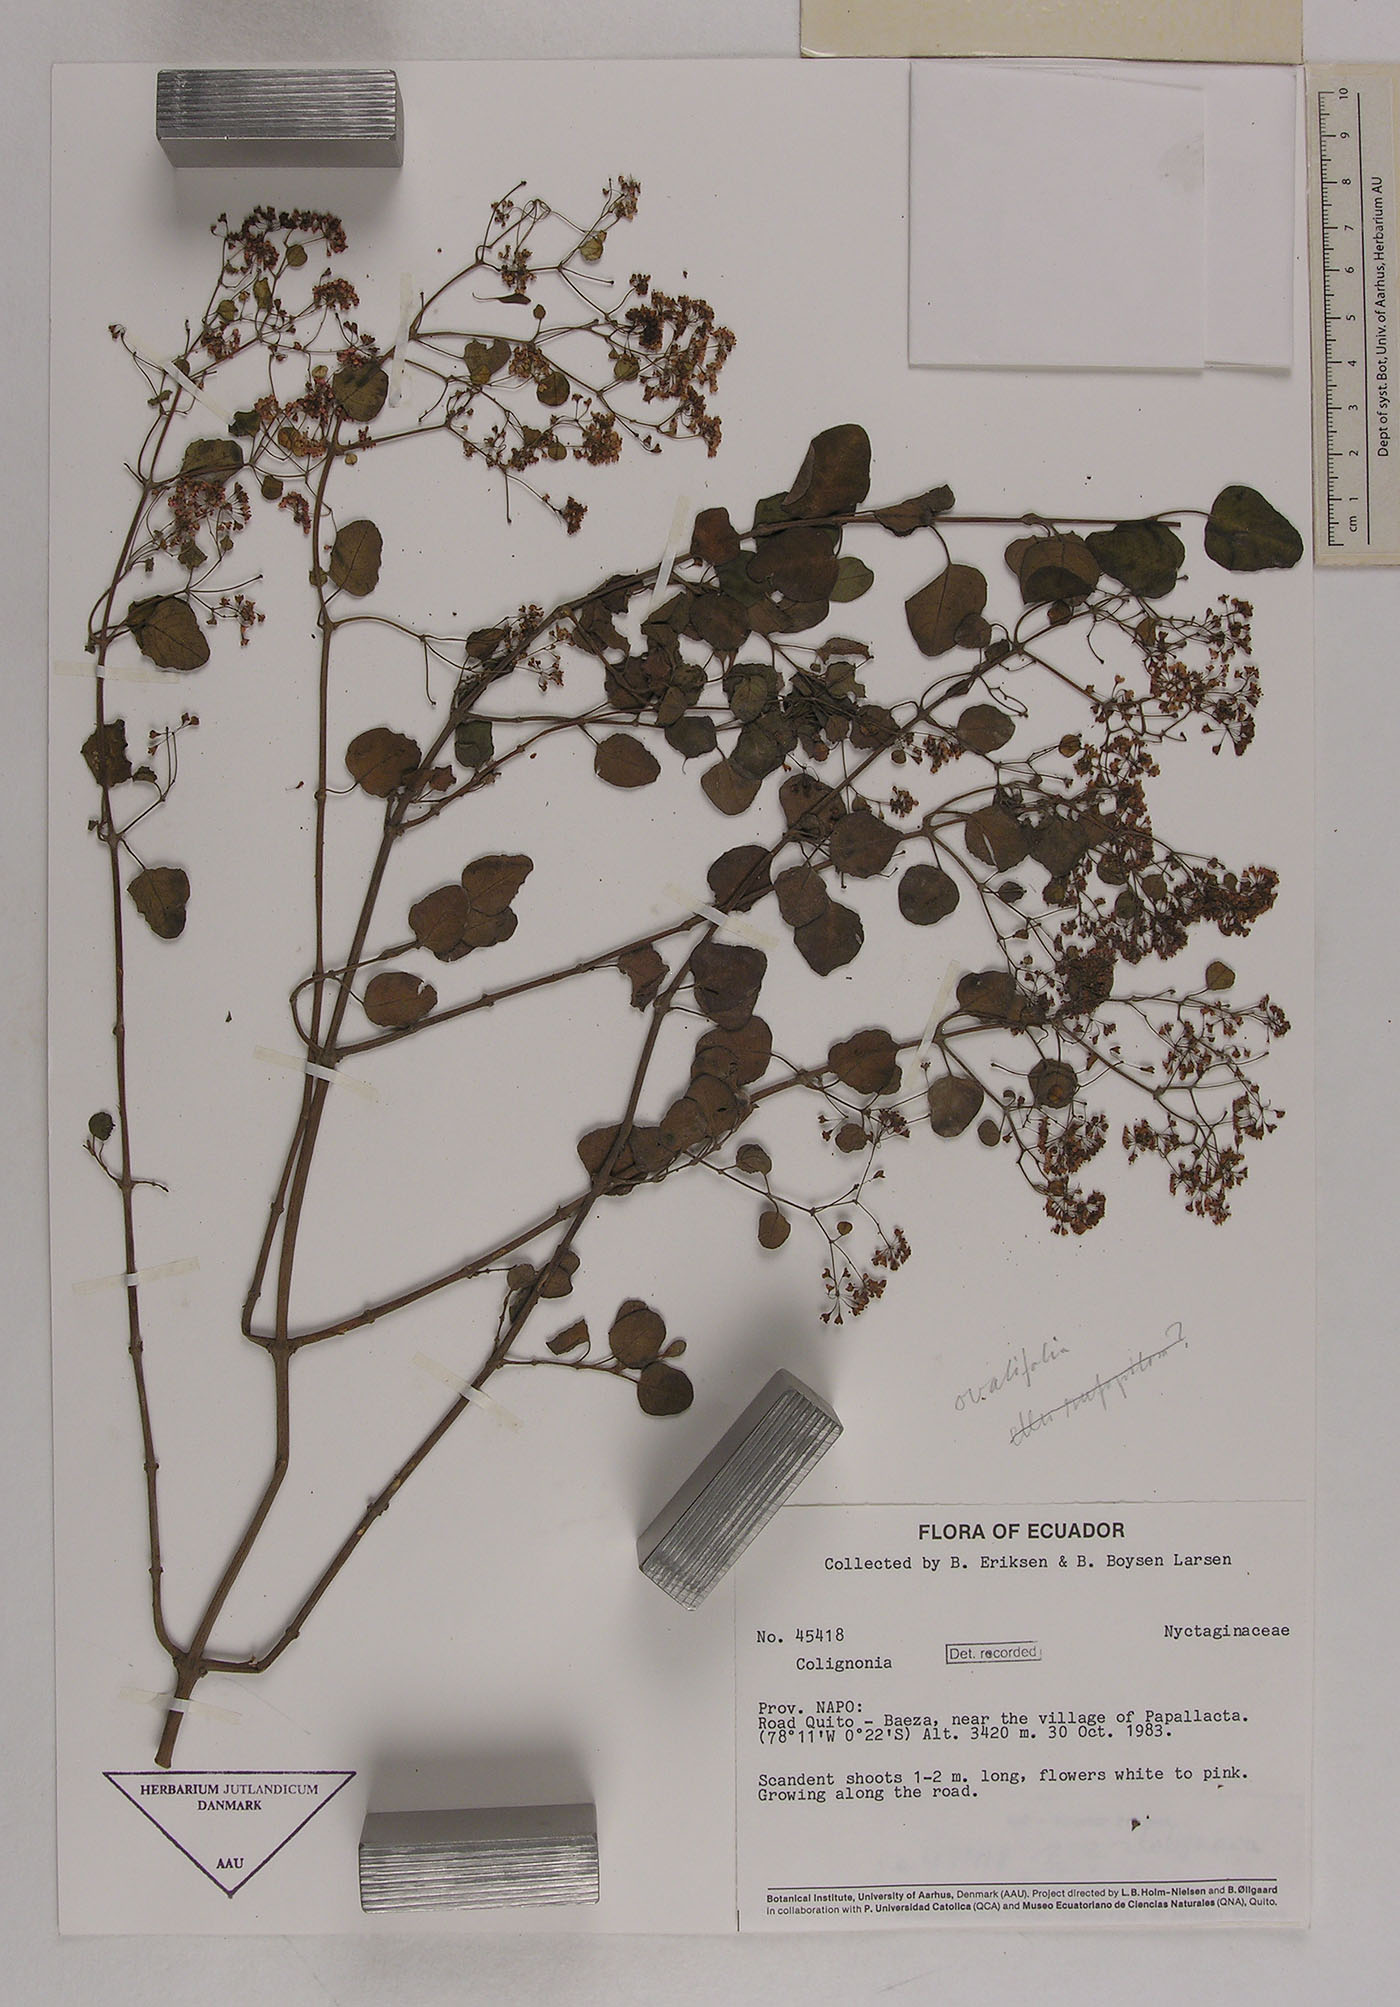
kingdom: Plantae
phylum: Tracheophyta
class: Magnoliopsida
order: Caryophyllales
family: Nyctaginaceae
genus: Colignonia
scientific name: Colignonia
